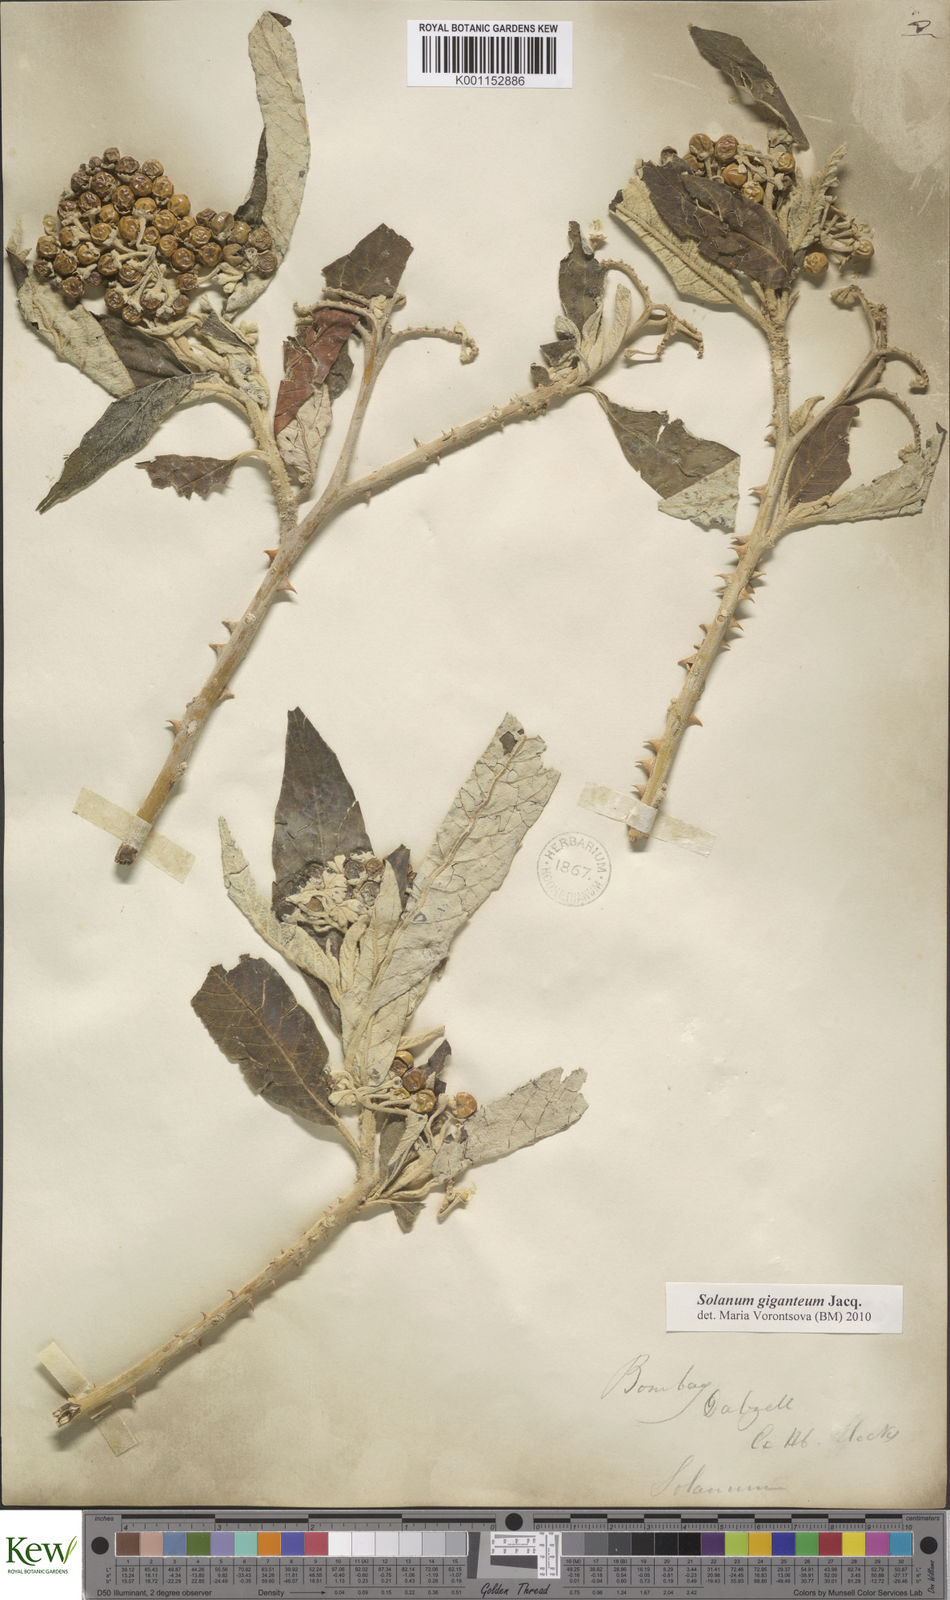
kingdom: Plantae
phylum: Tracheophyta
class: Magnoliopsida
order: Solanales
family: Solanaceae
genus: Solanum
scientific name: Solanum giganteum
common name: Healing-leaf-tree
